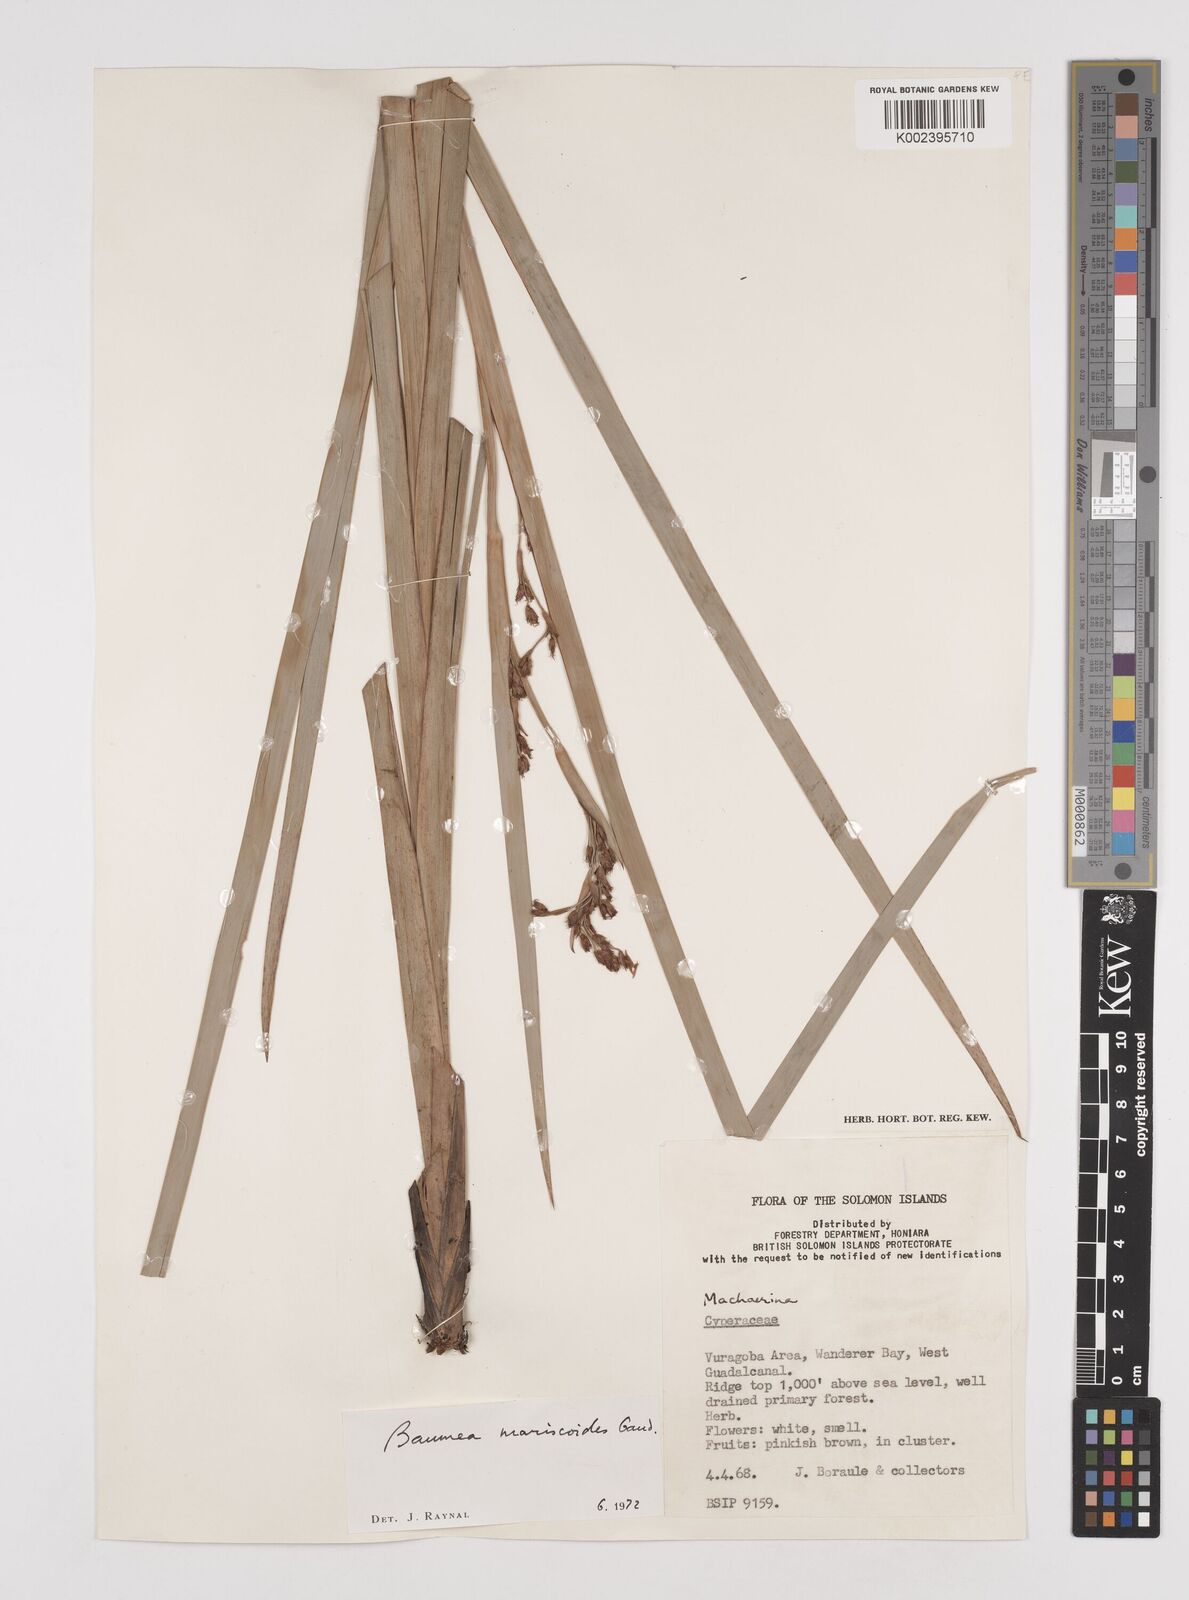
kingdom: Plantae
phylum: Tracheophyta
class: Liliopsida
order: Poales
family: Cyperaceae
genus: Machaerina
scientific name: Machaerina mariscoides
